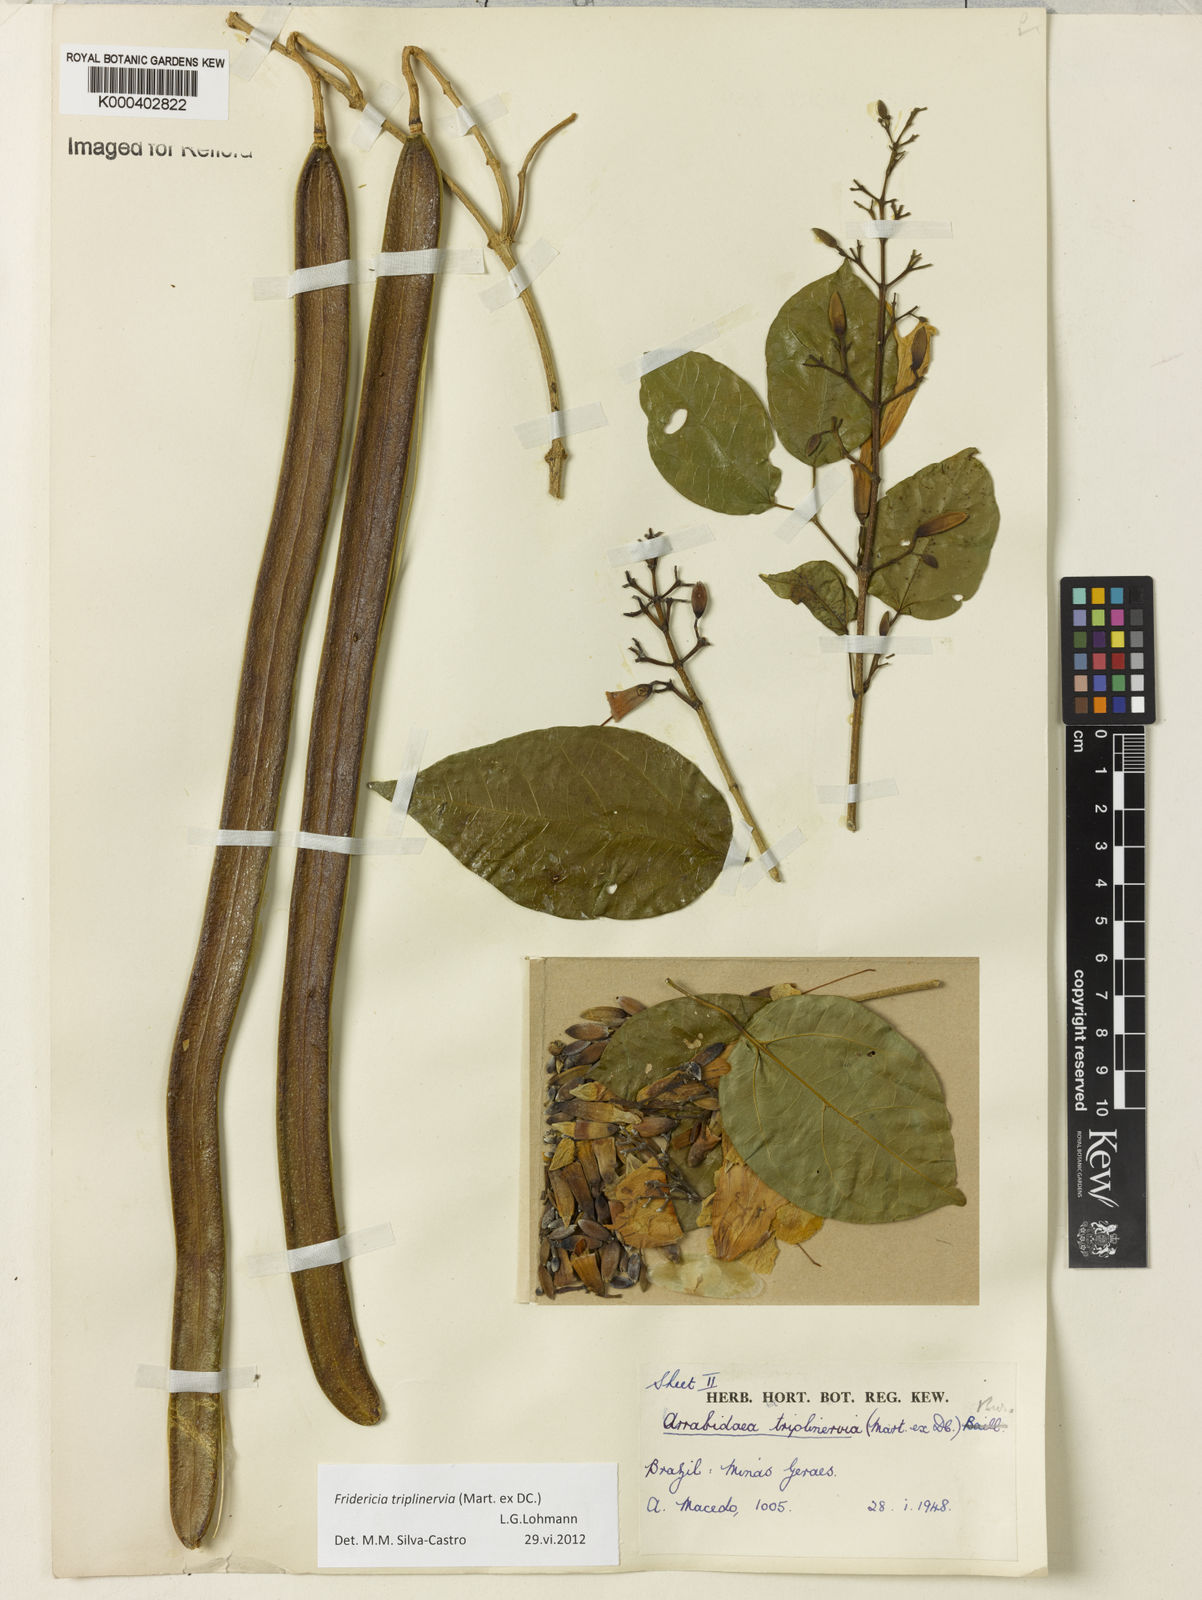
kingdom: Plantae
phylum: Tracheophyta
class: Magnoliopsida
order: Lamiales
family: Bignoniaceae
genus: Fridericia
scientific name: Fridericia triplinervia
